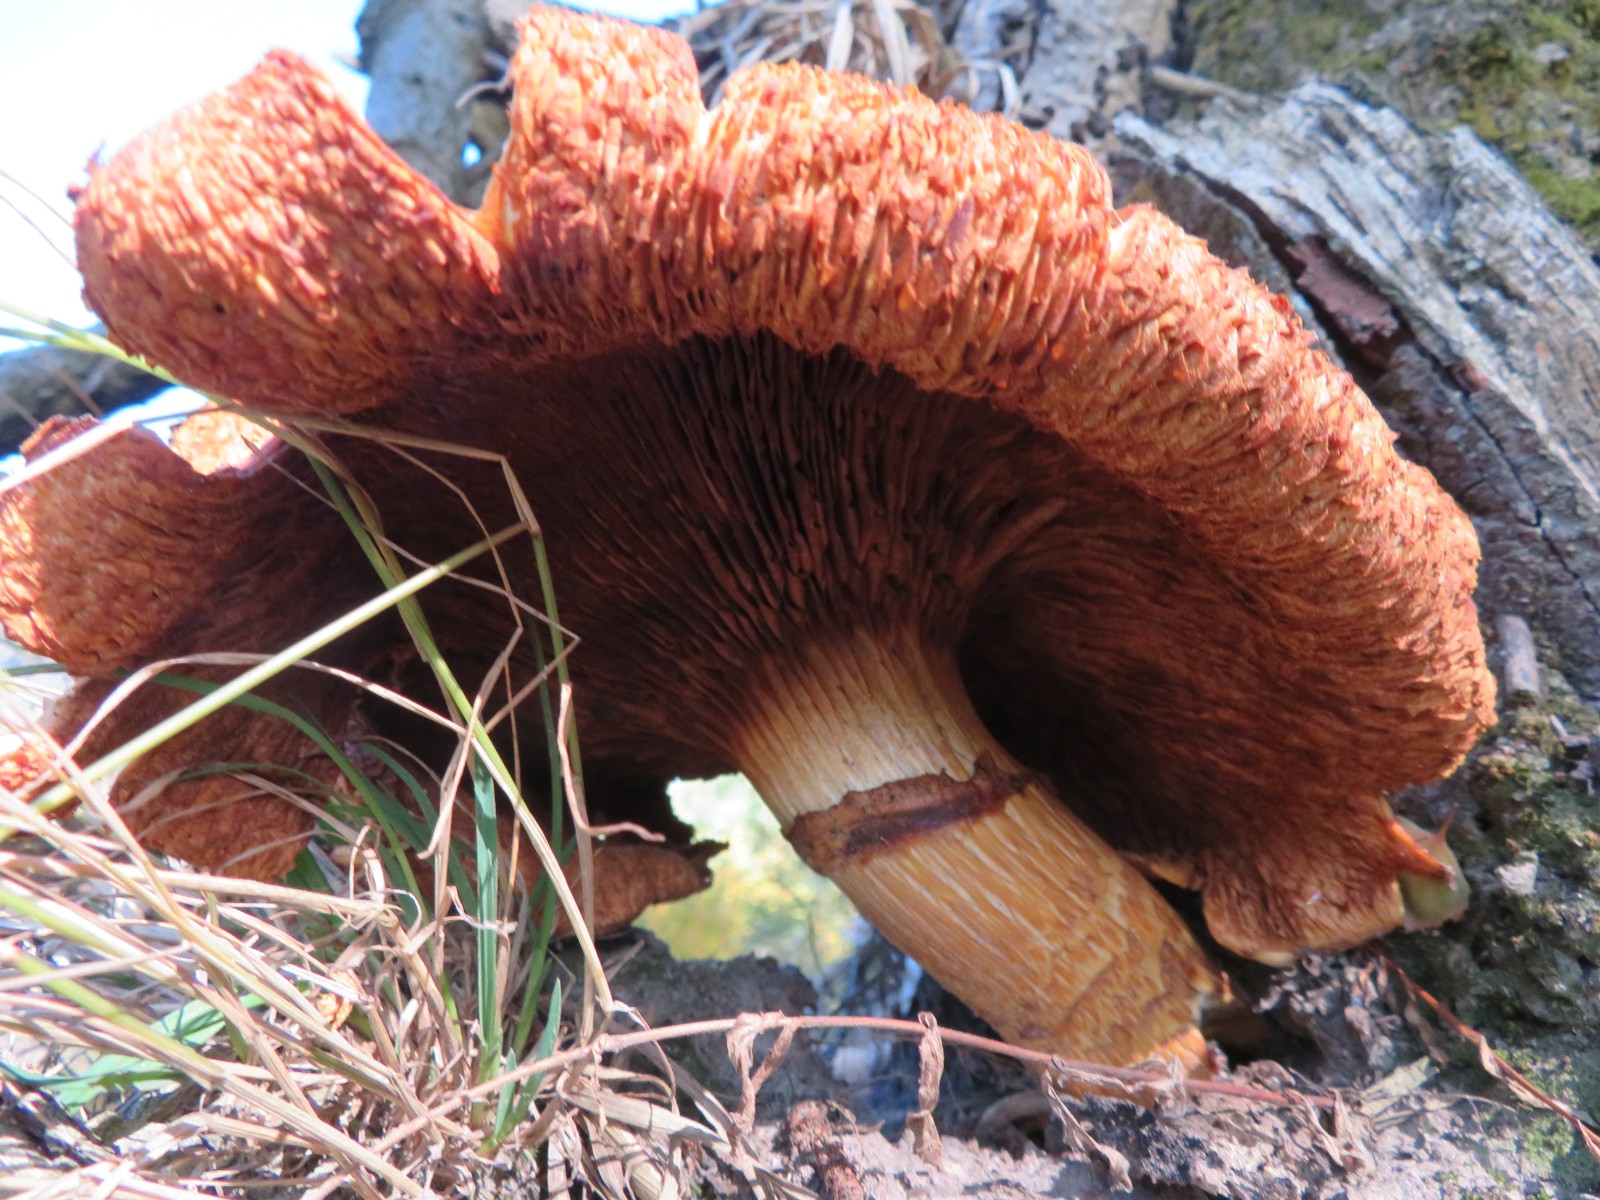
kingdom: Fungi
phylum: Basidiomycota
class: Agaricomycetes
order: Agaricales
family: Hymenogastraceae
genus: Gymnopilus
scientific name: Gymnopilus spectabilis
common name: fibret flammehat
